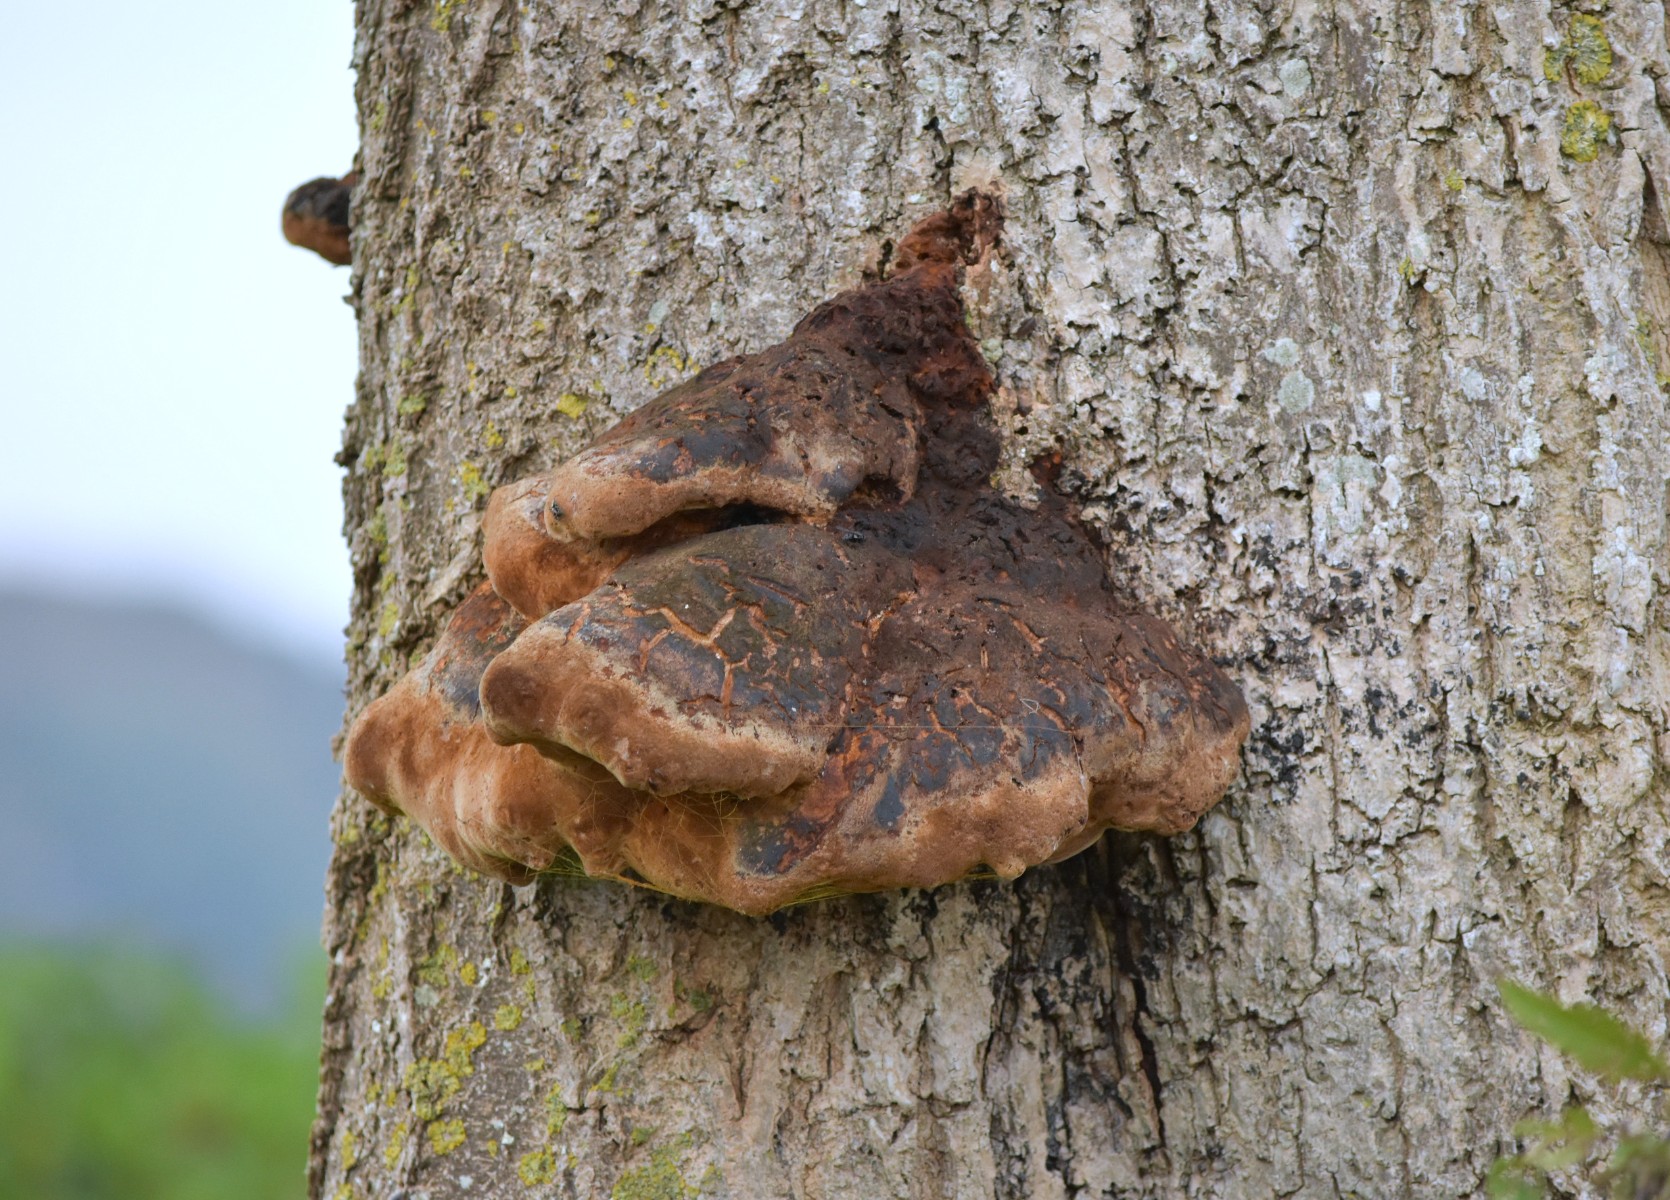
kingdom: Fungi
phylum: Basidiomycota
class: Agaricomycetes
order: Hymenochaetales
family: Hymenochaetaceae
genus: Inonotus
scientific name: Inonotus hispidus
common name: børstehåret spejlporesvamp
